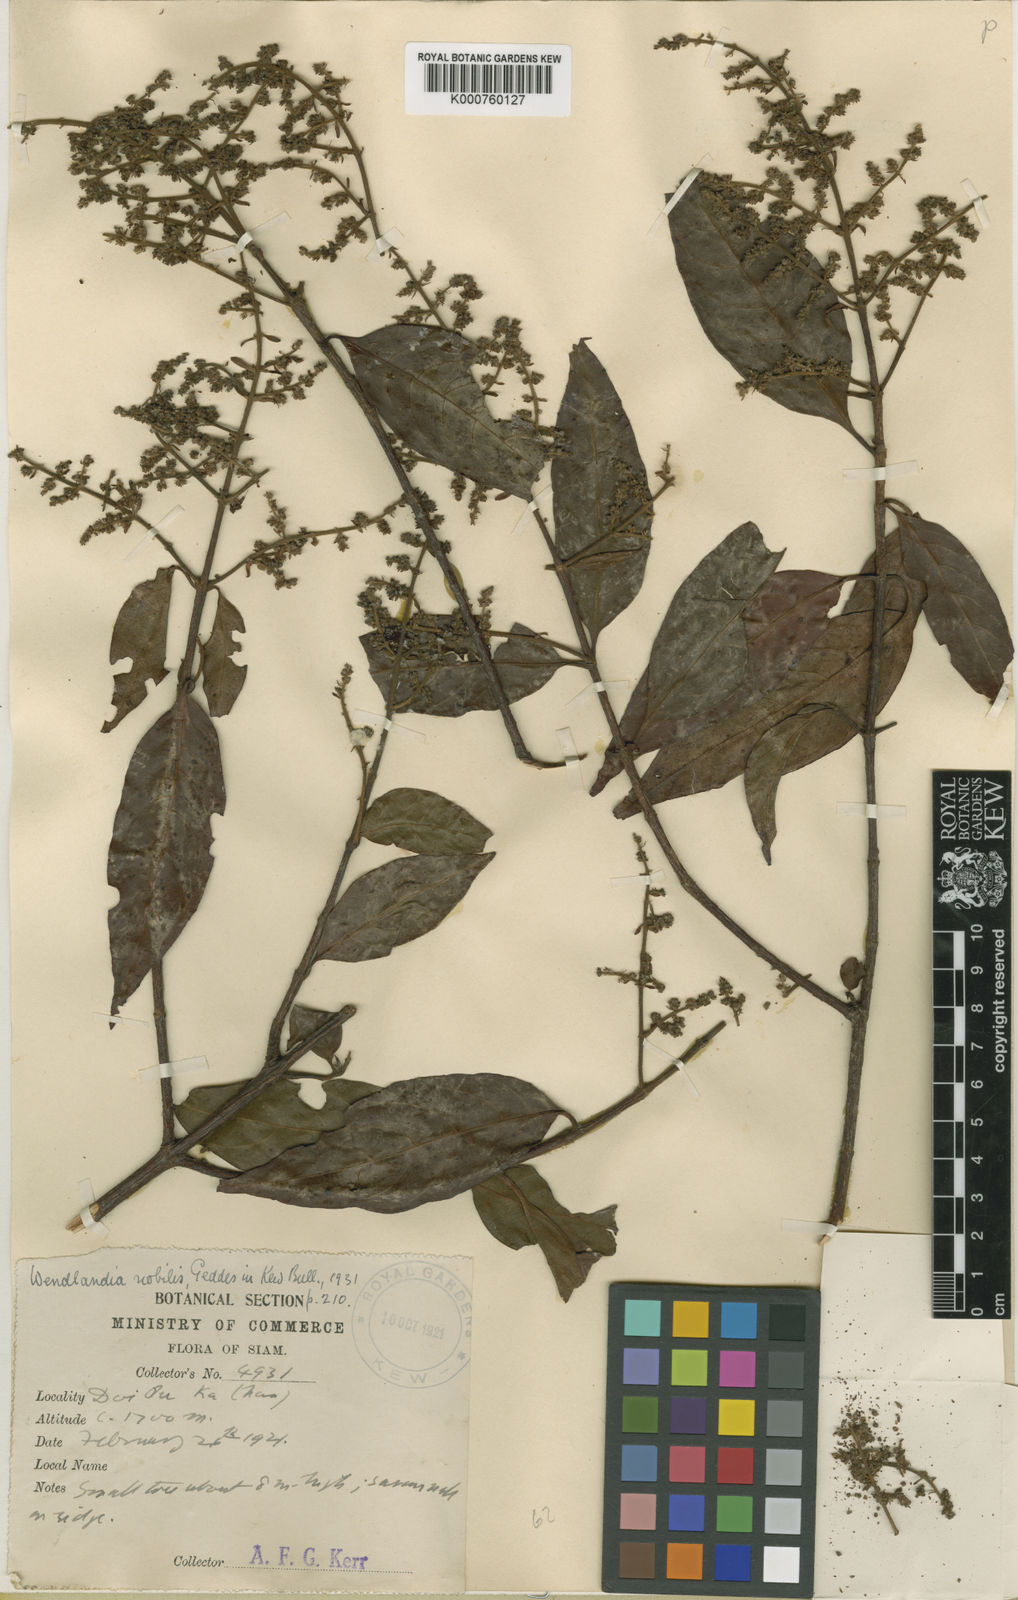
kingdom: Plantae
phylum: Tracheophyta
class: Magnoliopsida
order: Gentianales
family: Rubiaceae
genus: Wendlandia
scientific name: Wendlandia nobilis
